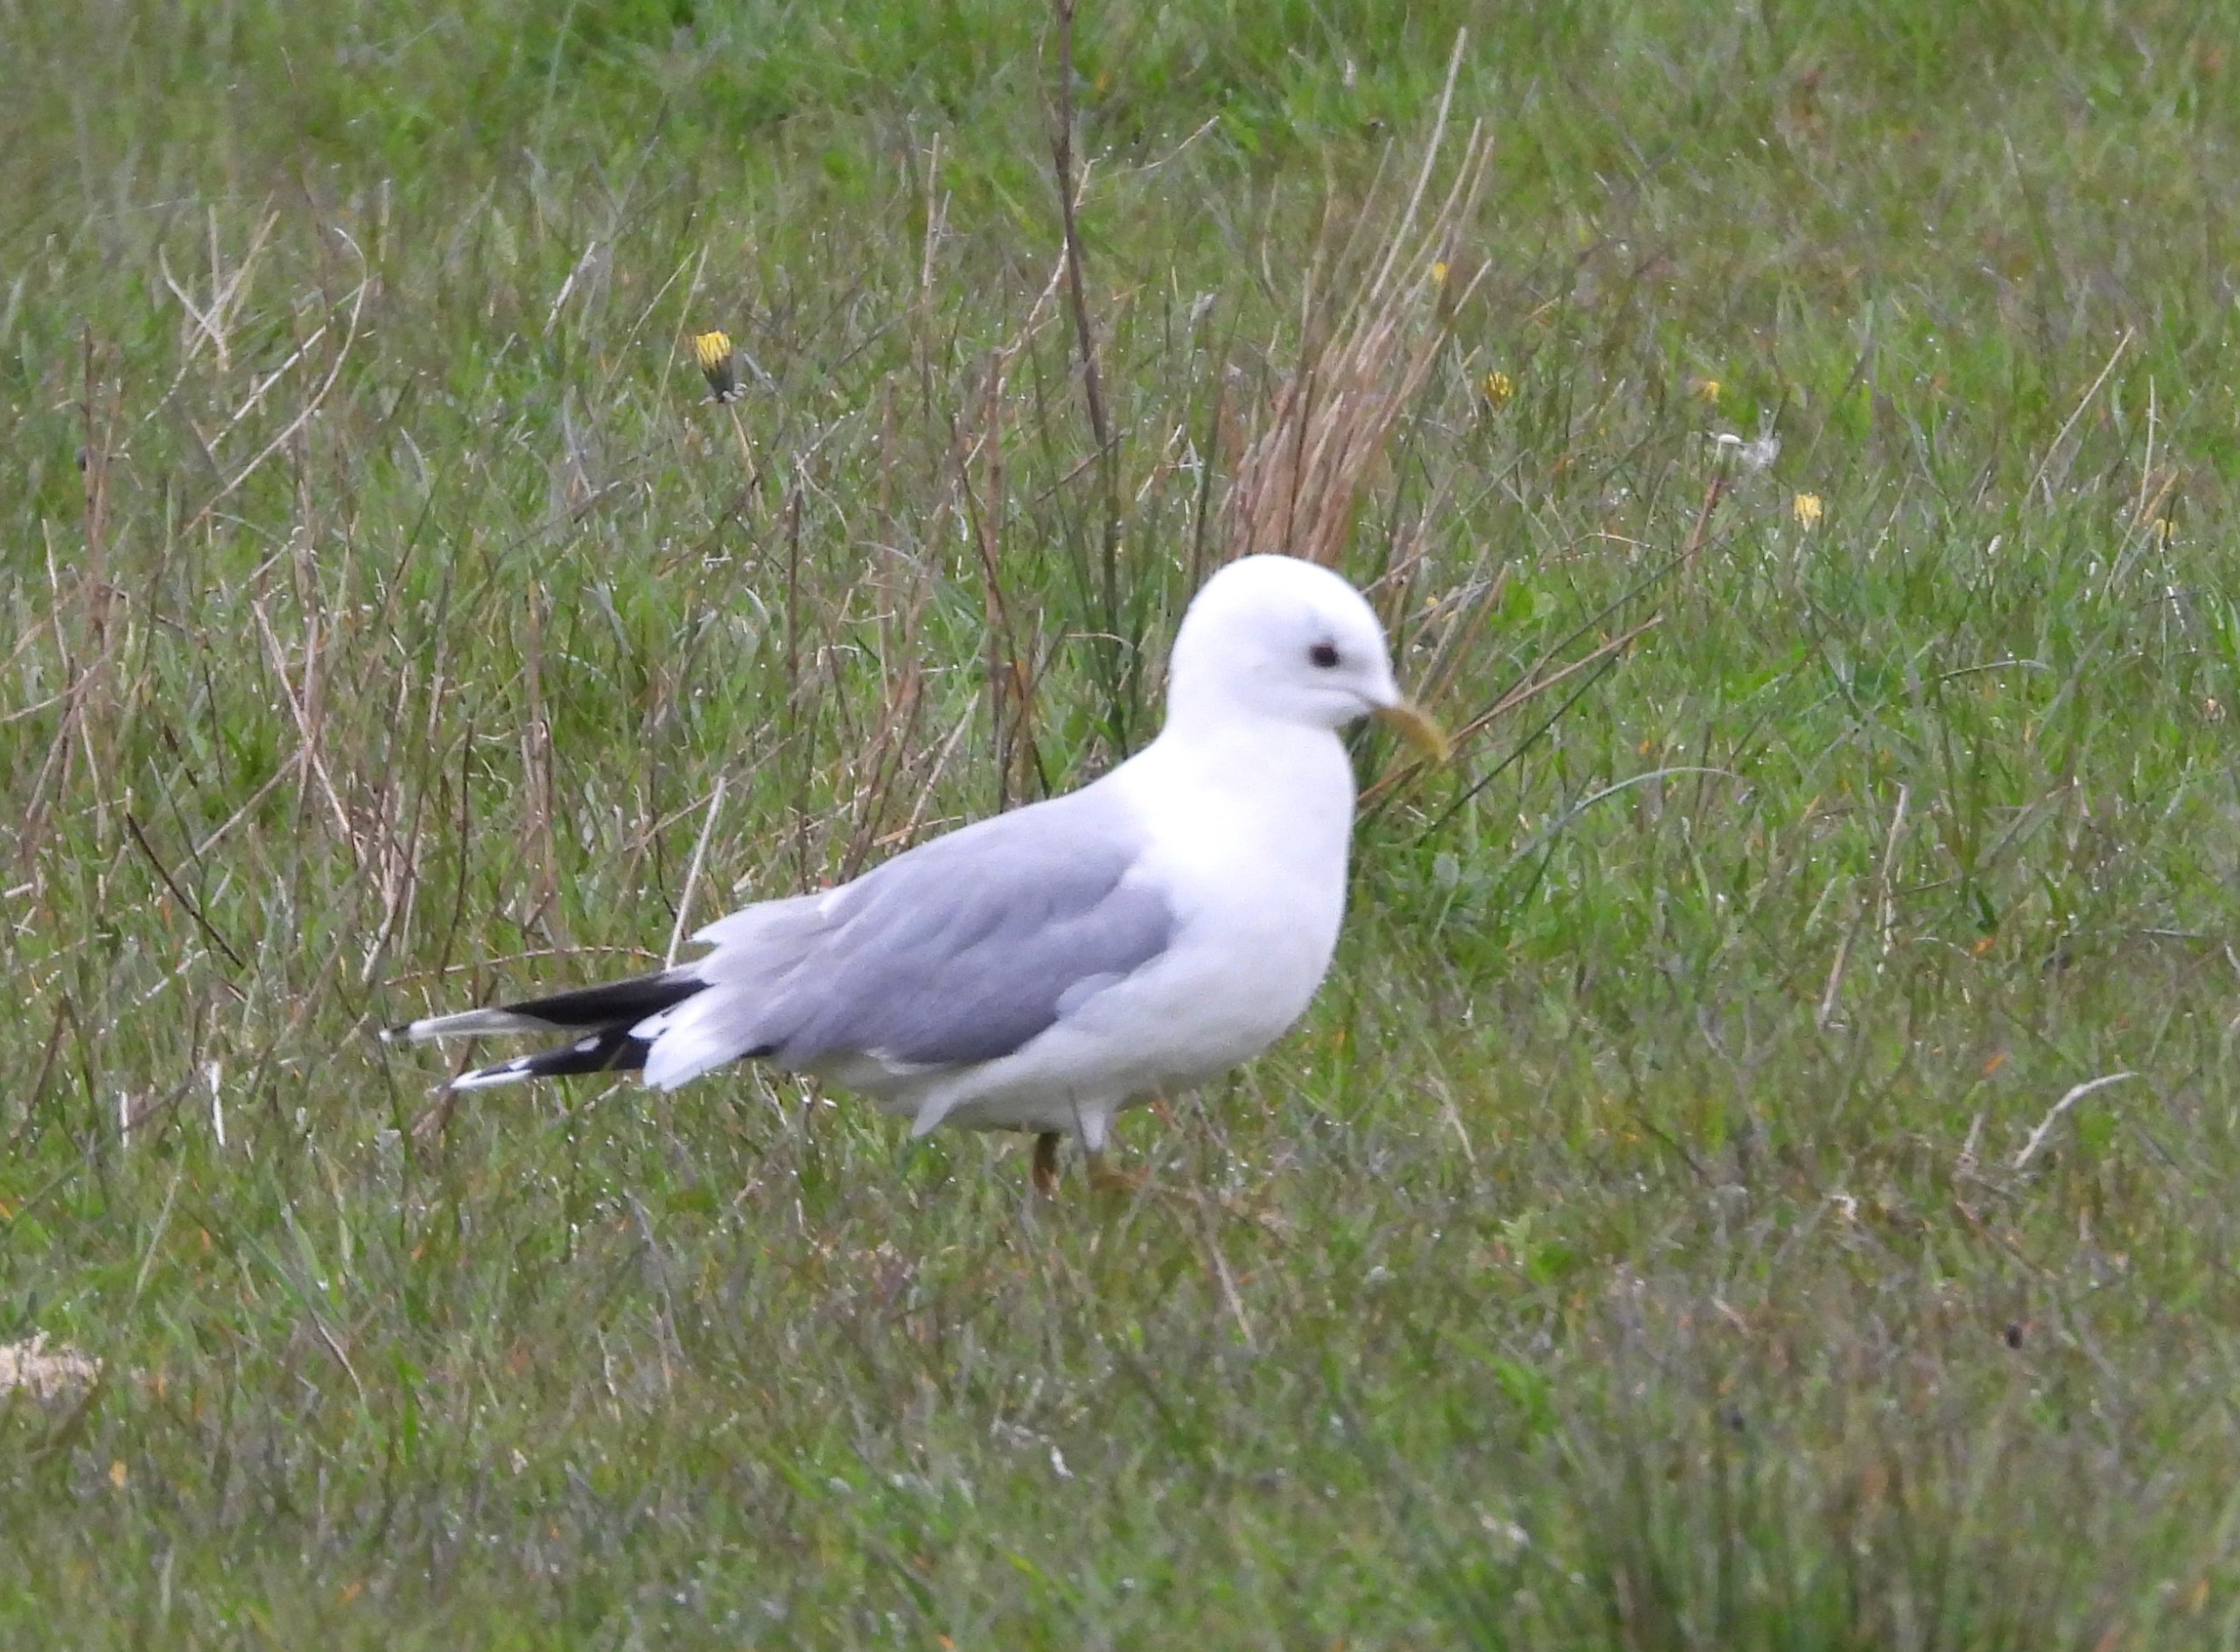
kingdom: Animalia
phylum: Chordata
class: Aves
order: Charadriiformes
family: Laridae
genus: Larus
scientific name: Larus canus
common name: Stormmåge
